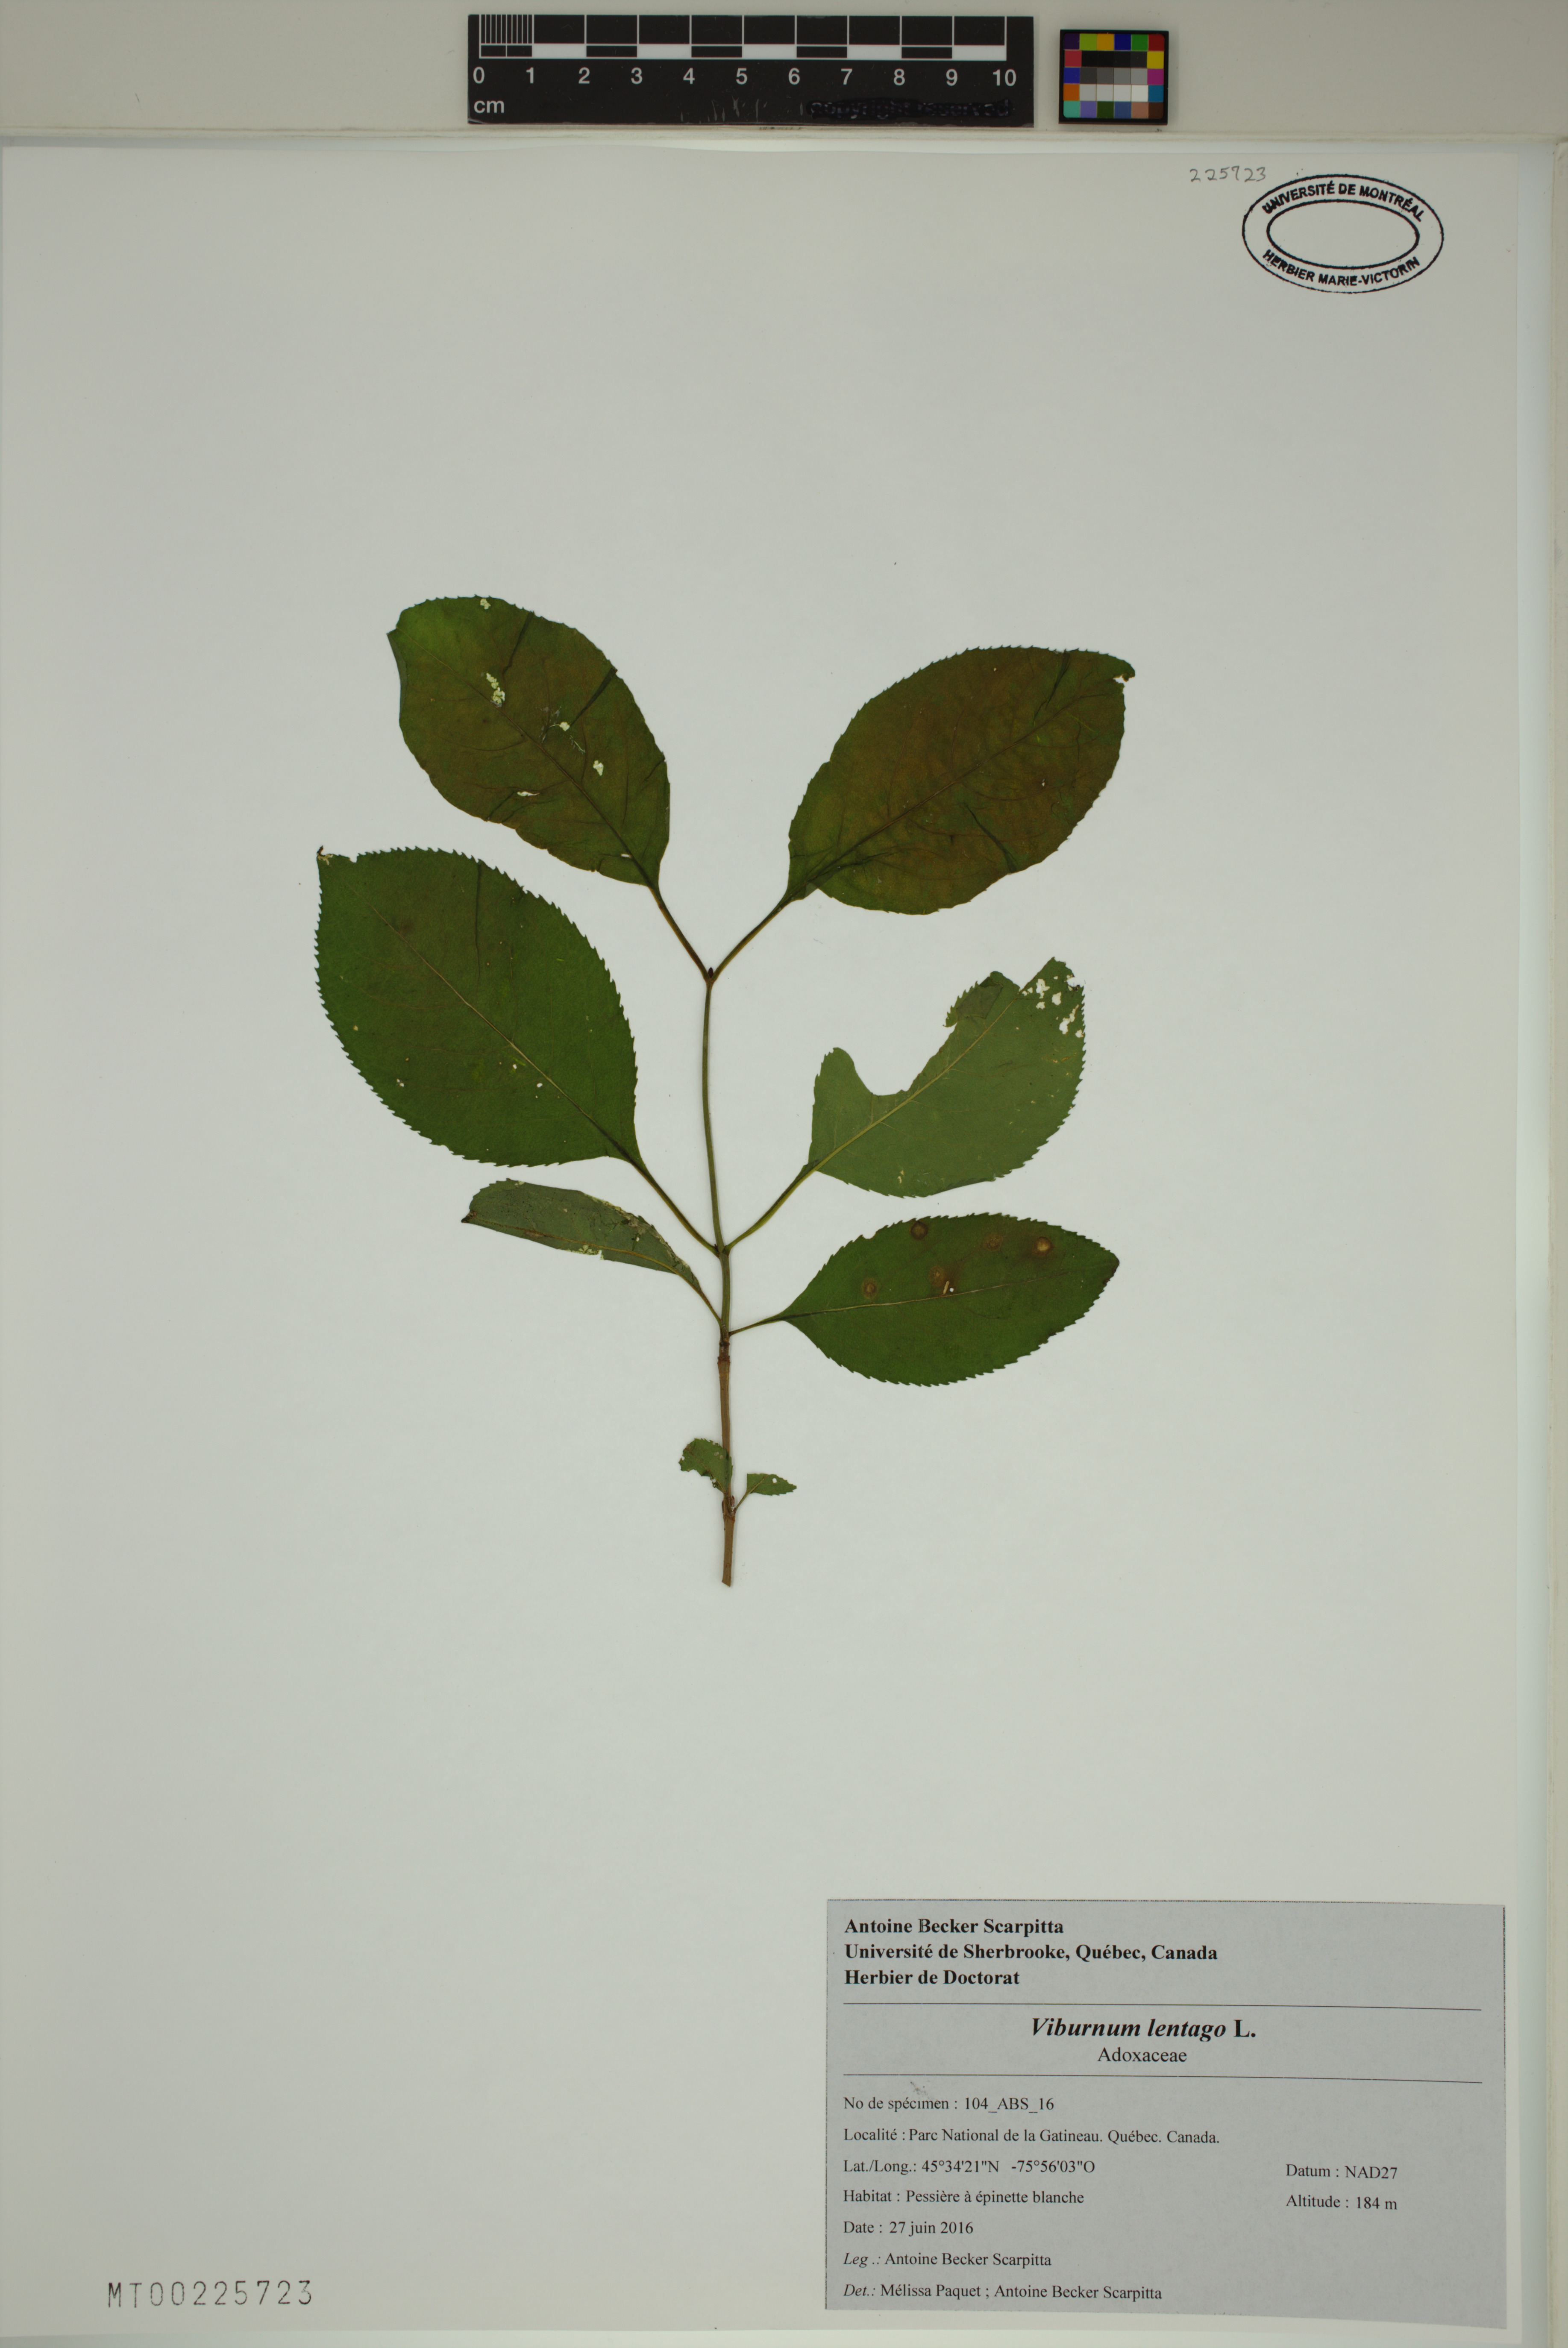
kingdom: Plantae
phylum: Tracheophyta
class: Magnoliopsida
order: Dipsacales
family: Viburnaceae
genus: Viburnum
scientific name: Viburnum lentago
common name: Black haw
